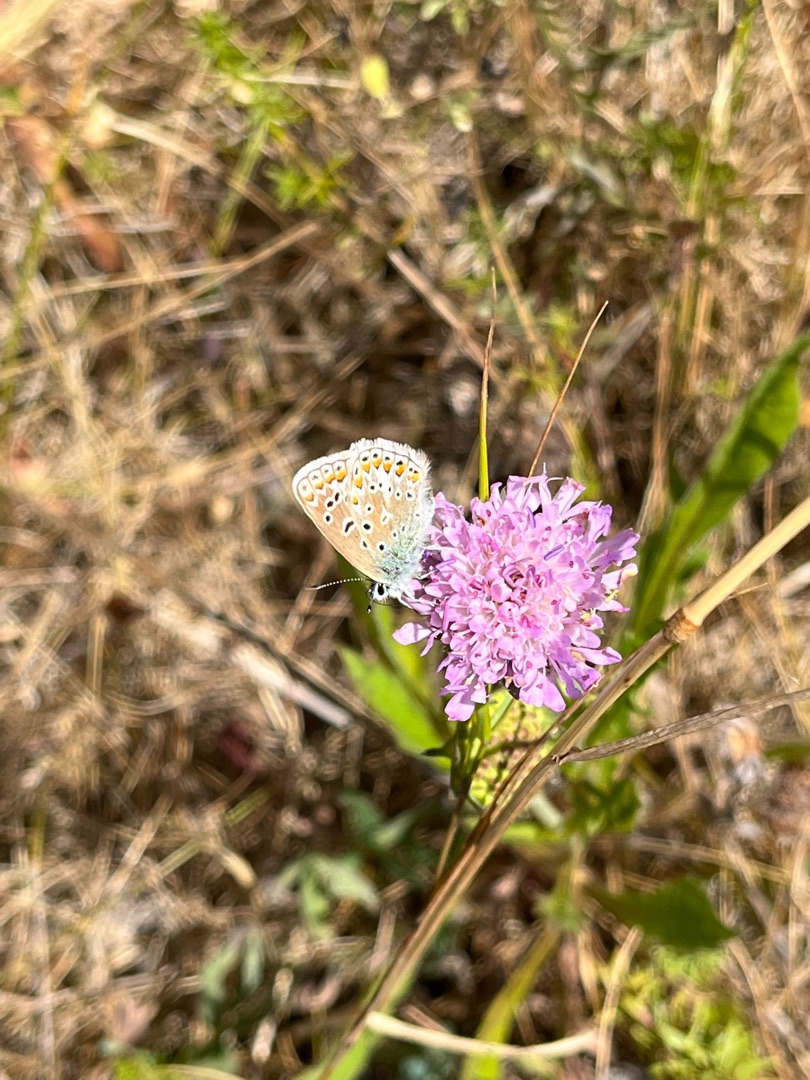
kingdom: Animalia
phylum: Arthropoda
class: Insecta
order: Lepidoptera
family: Lycaenidae
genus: Polyommatus
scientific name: Polyommatus icarus
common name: Almindelig blåfugl
